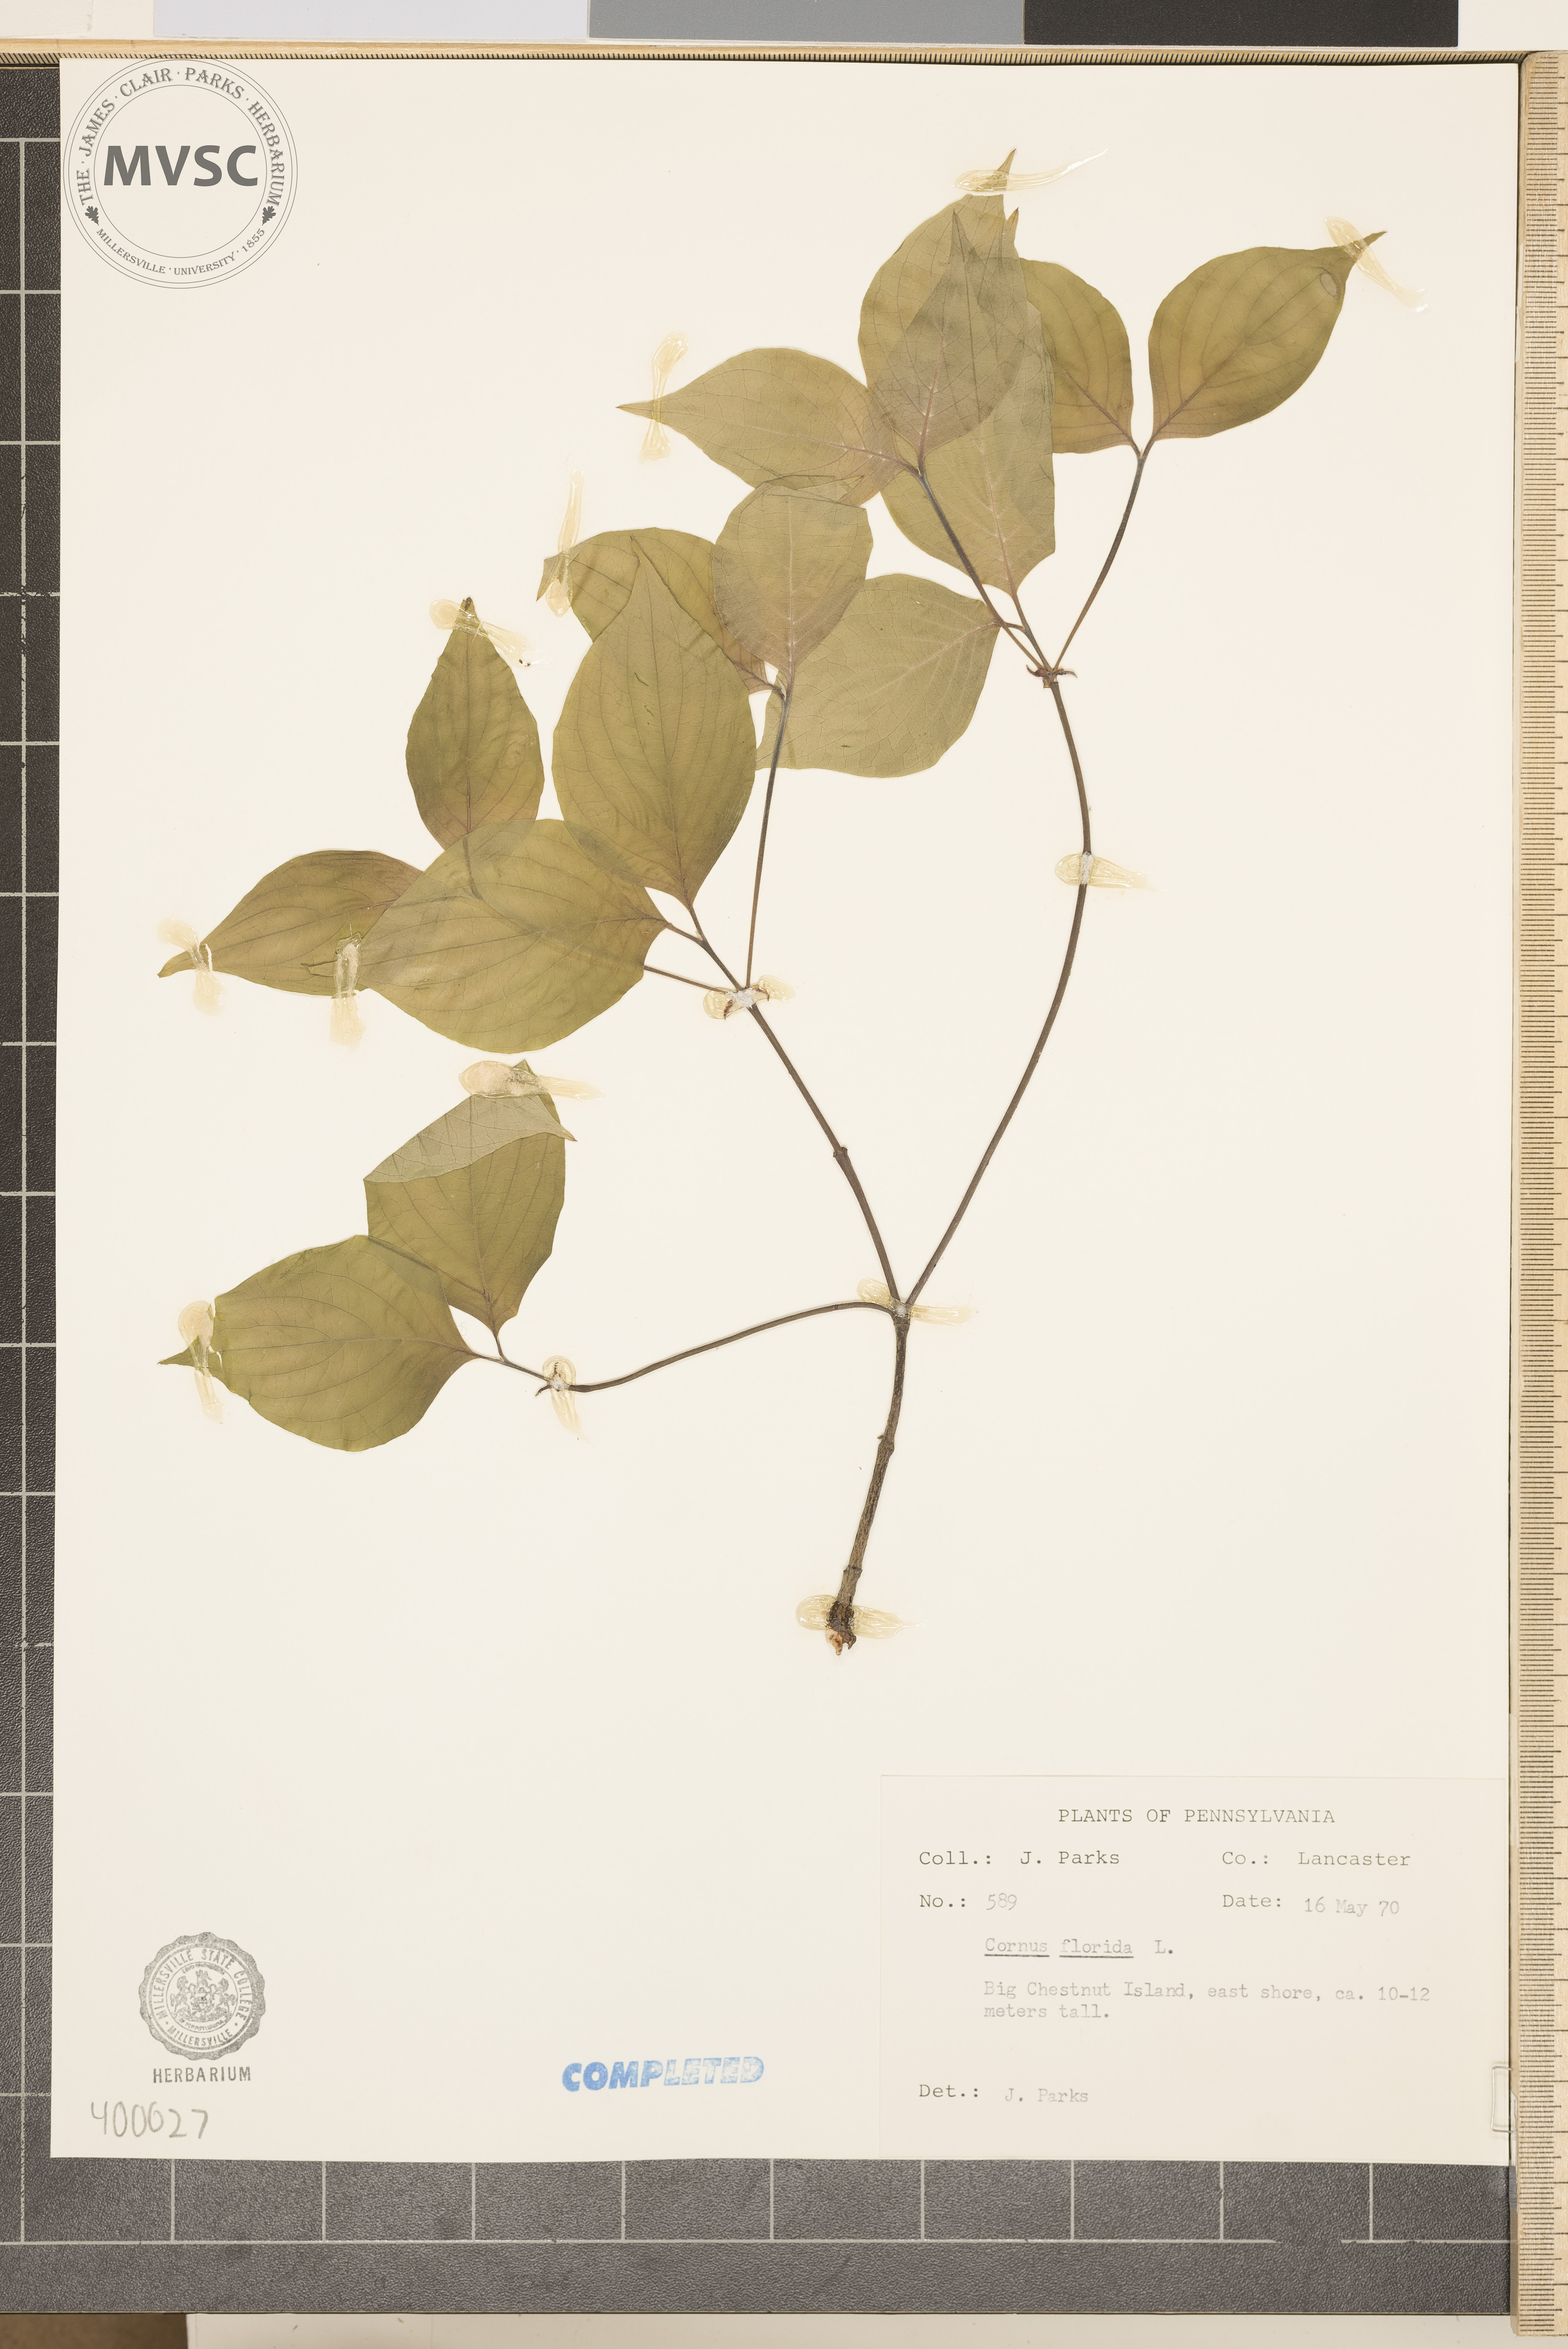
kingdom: Plantae
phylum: Tracheophyta
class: Magnoliopsida
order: Cornales
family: Cornaceae
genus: Cornus
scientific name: Cornus florida
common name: flowering dogwood
